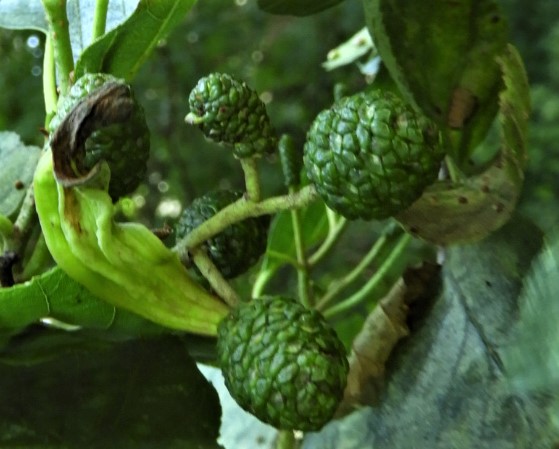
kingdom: Fungi
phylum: Ascomycota
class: Taphrinomycetes
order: Taphrinales
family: Taphrinaceae
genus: Taphrina
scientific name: Taphrina alni
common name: Alder tongue
